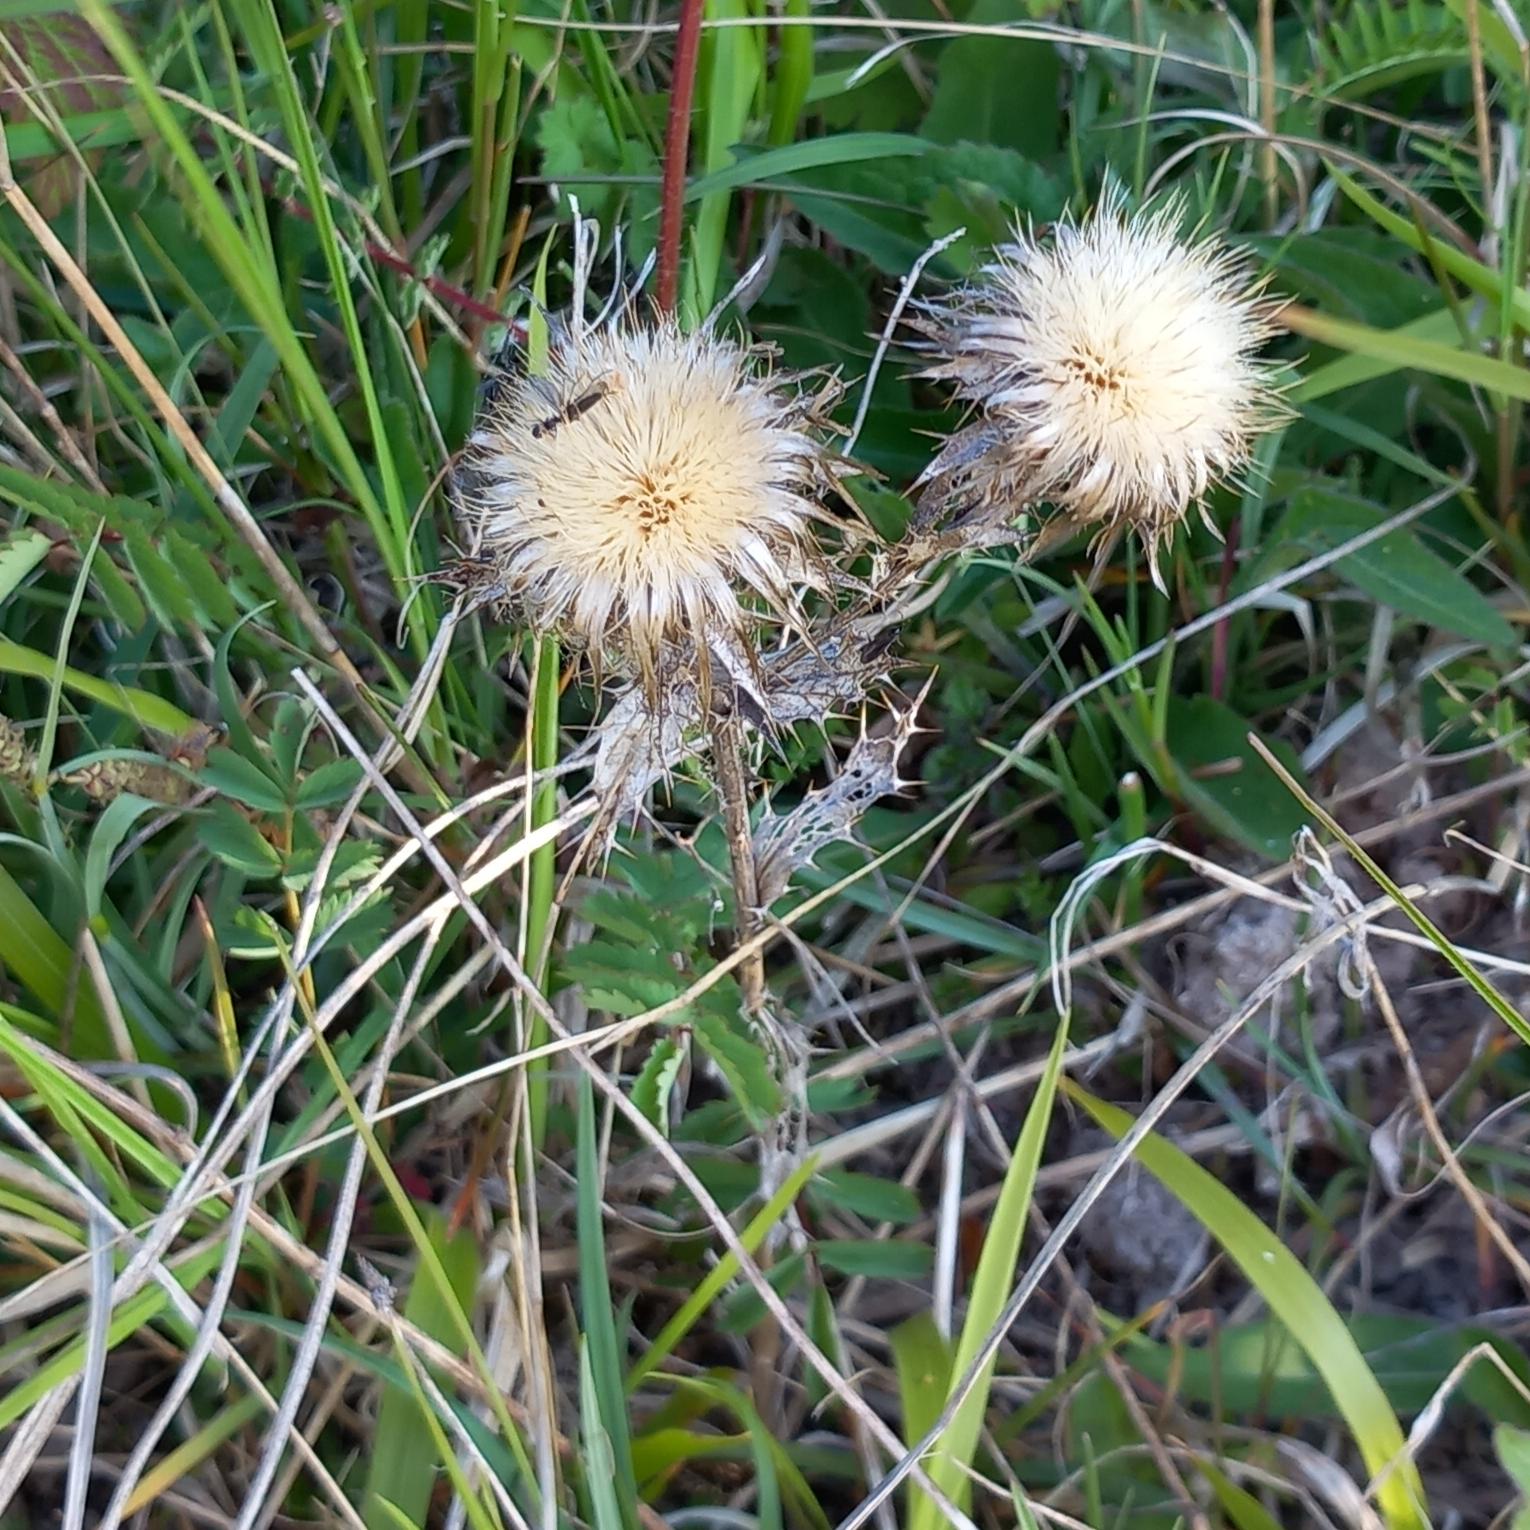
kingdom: Plantae
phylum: Tracheophyta
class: Magnoliopsida
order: Asterales
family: Asteraceae
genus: Carlina
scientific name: Carlina vulgaris
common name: Bakketidsel
